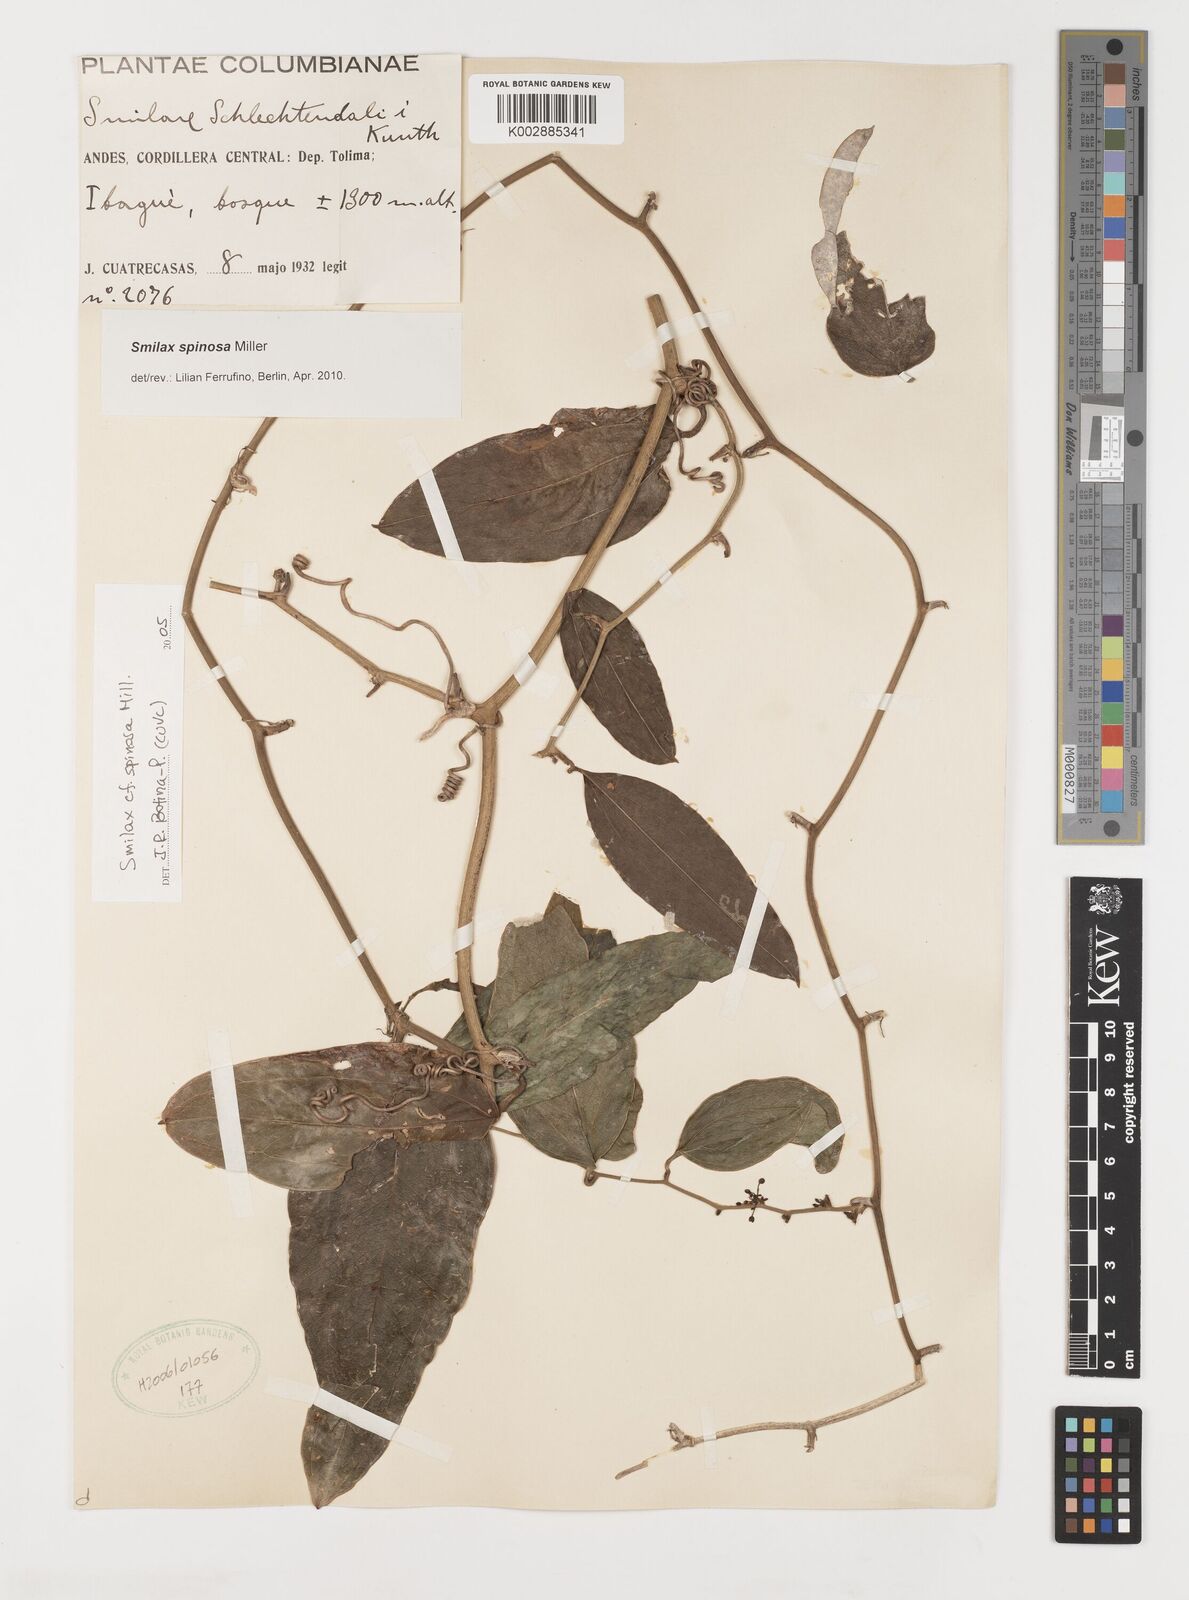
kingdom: Plantae
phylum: Tracheophyta
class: Liliopsida
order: Liliales
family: Smilacaceae
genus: Smilax
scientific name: Smilax spinosa
